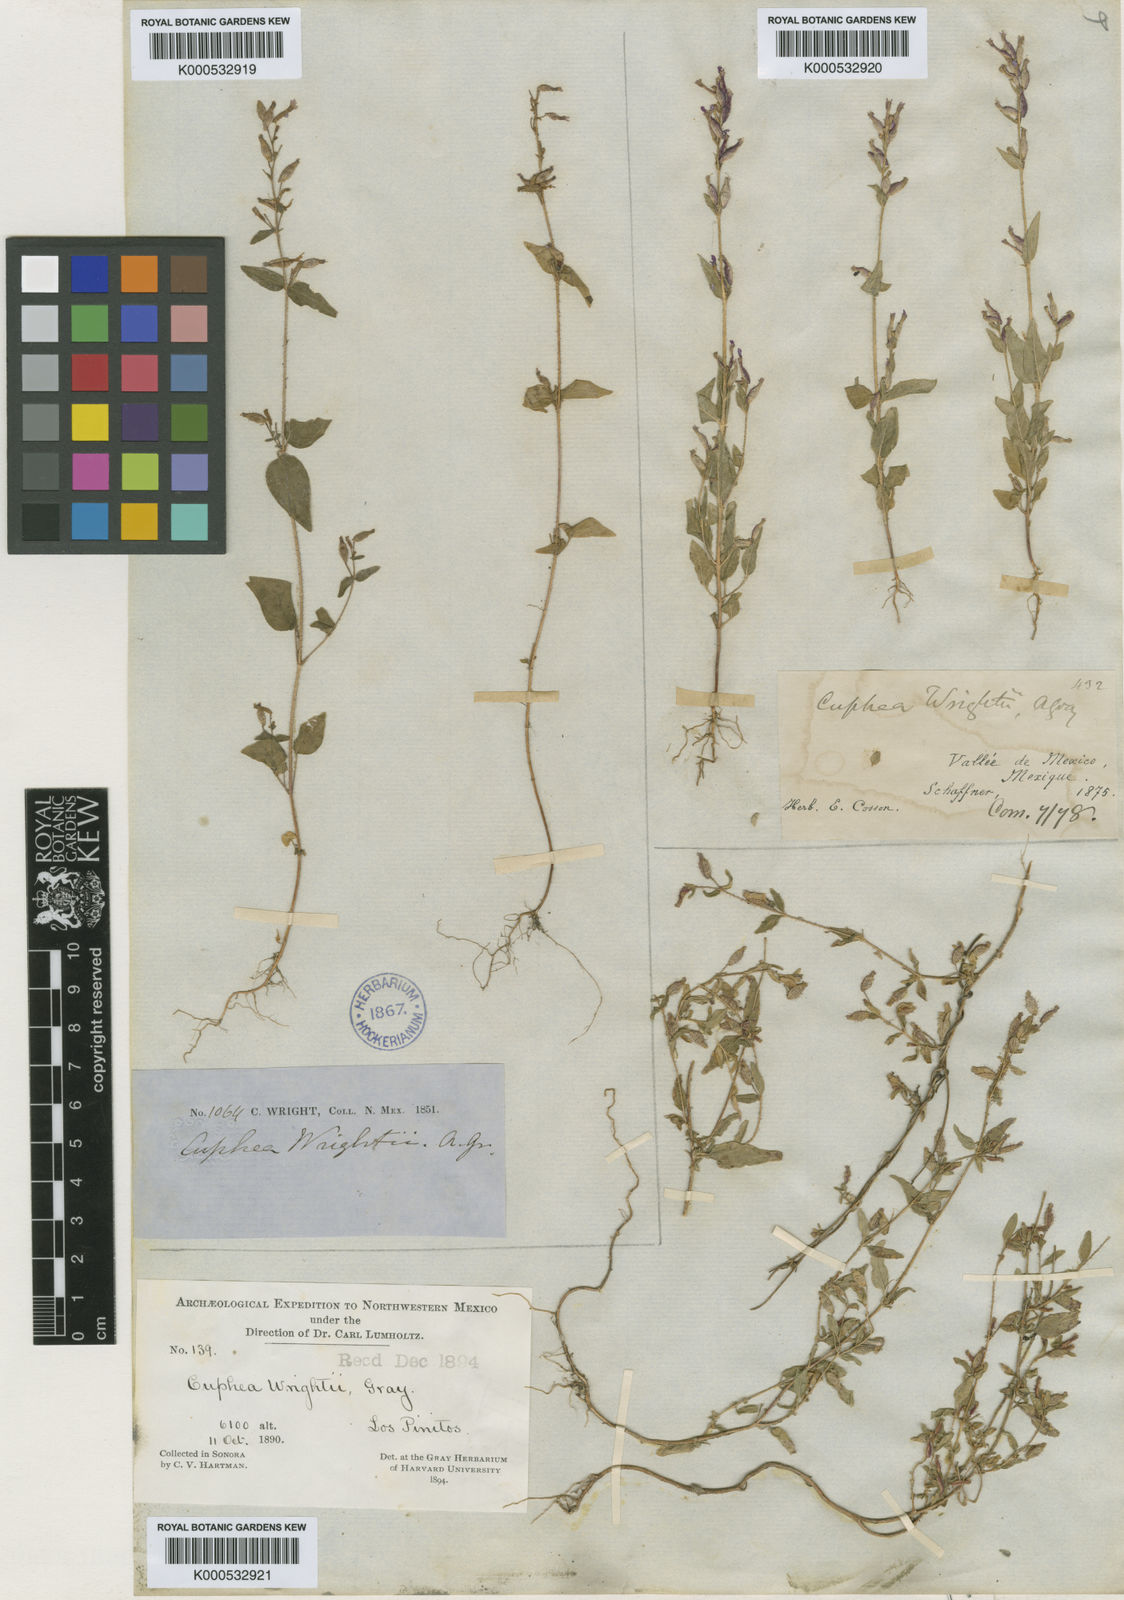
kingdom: Plantae
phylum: Tracheophyta
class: Magnoliopsida
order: Myrtales
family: Lythraceae
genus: Cuphea
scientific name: Cuphea wrightii
